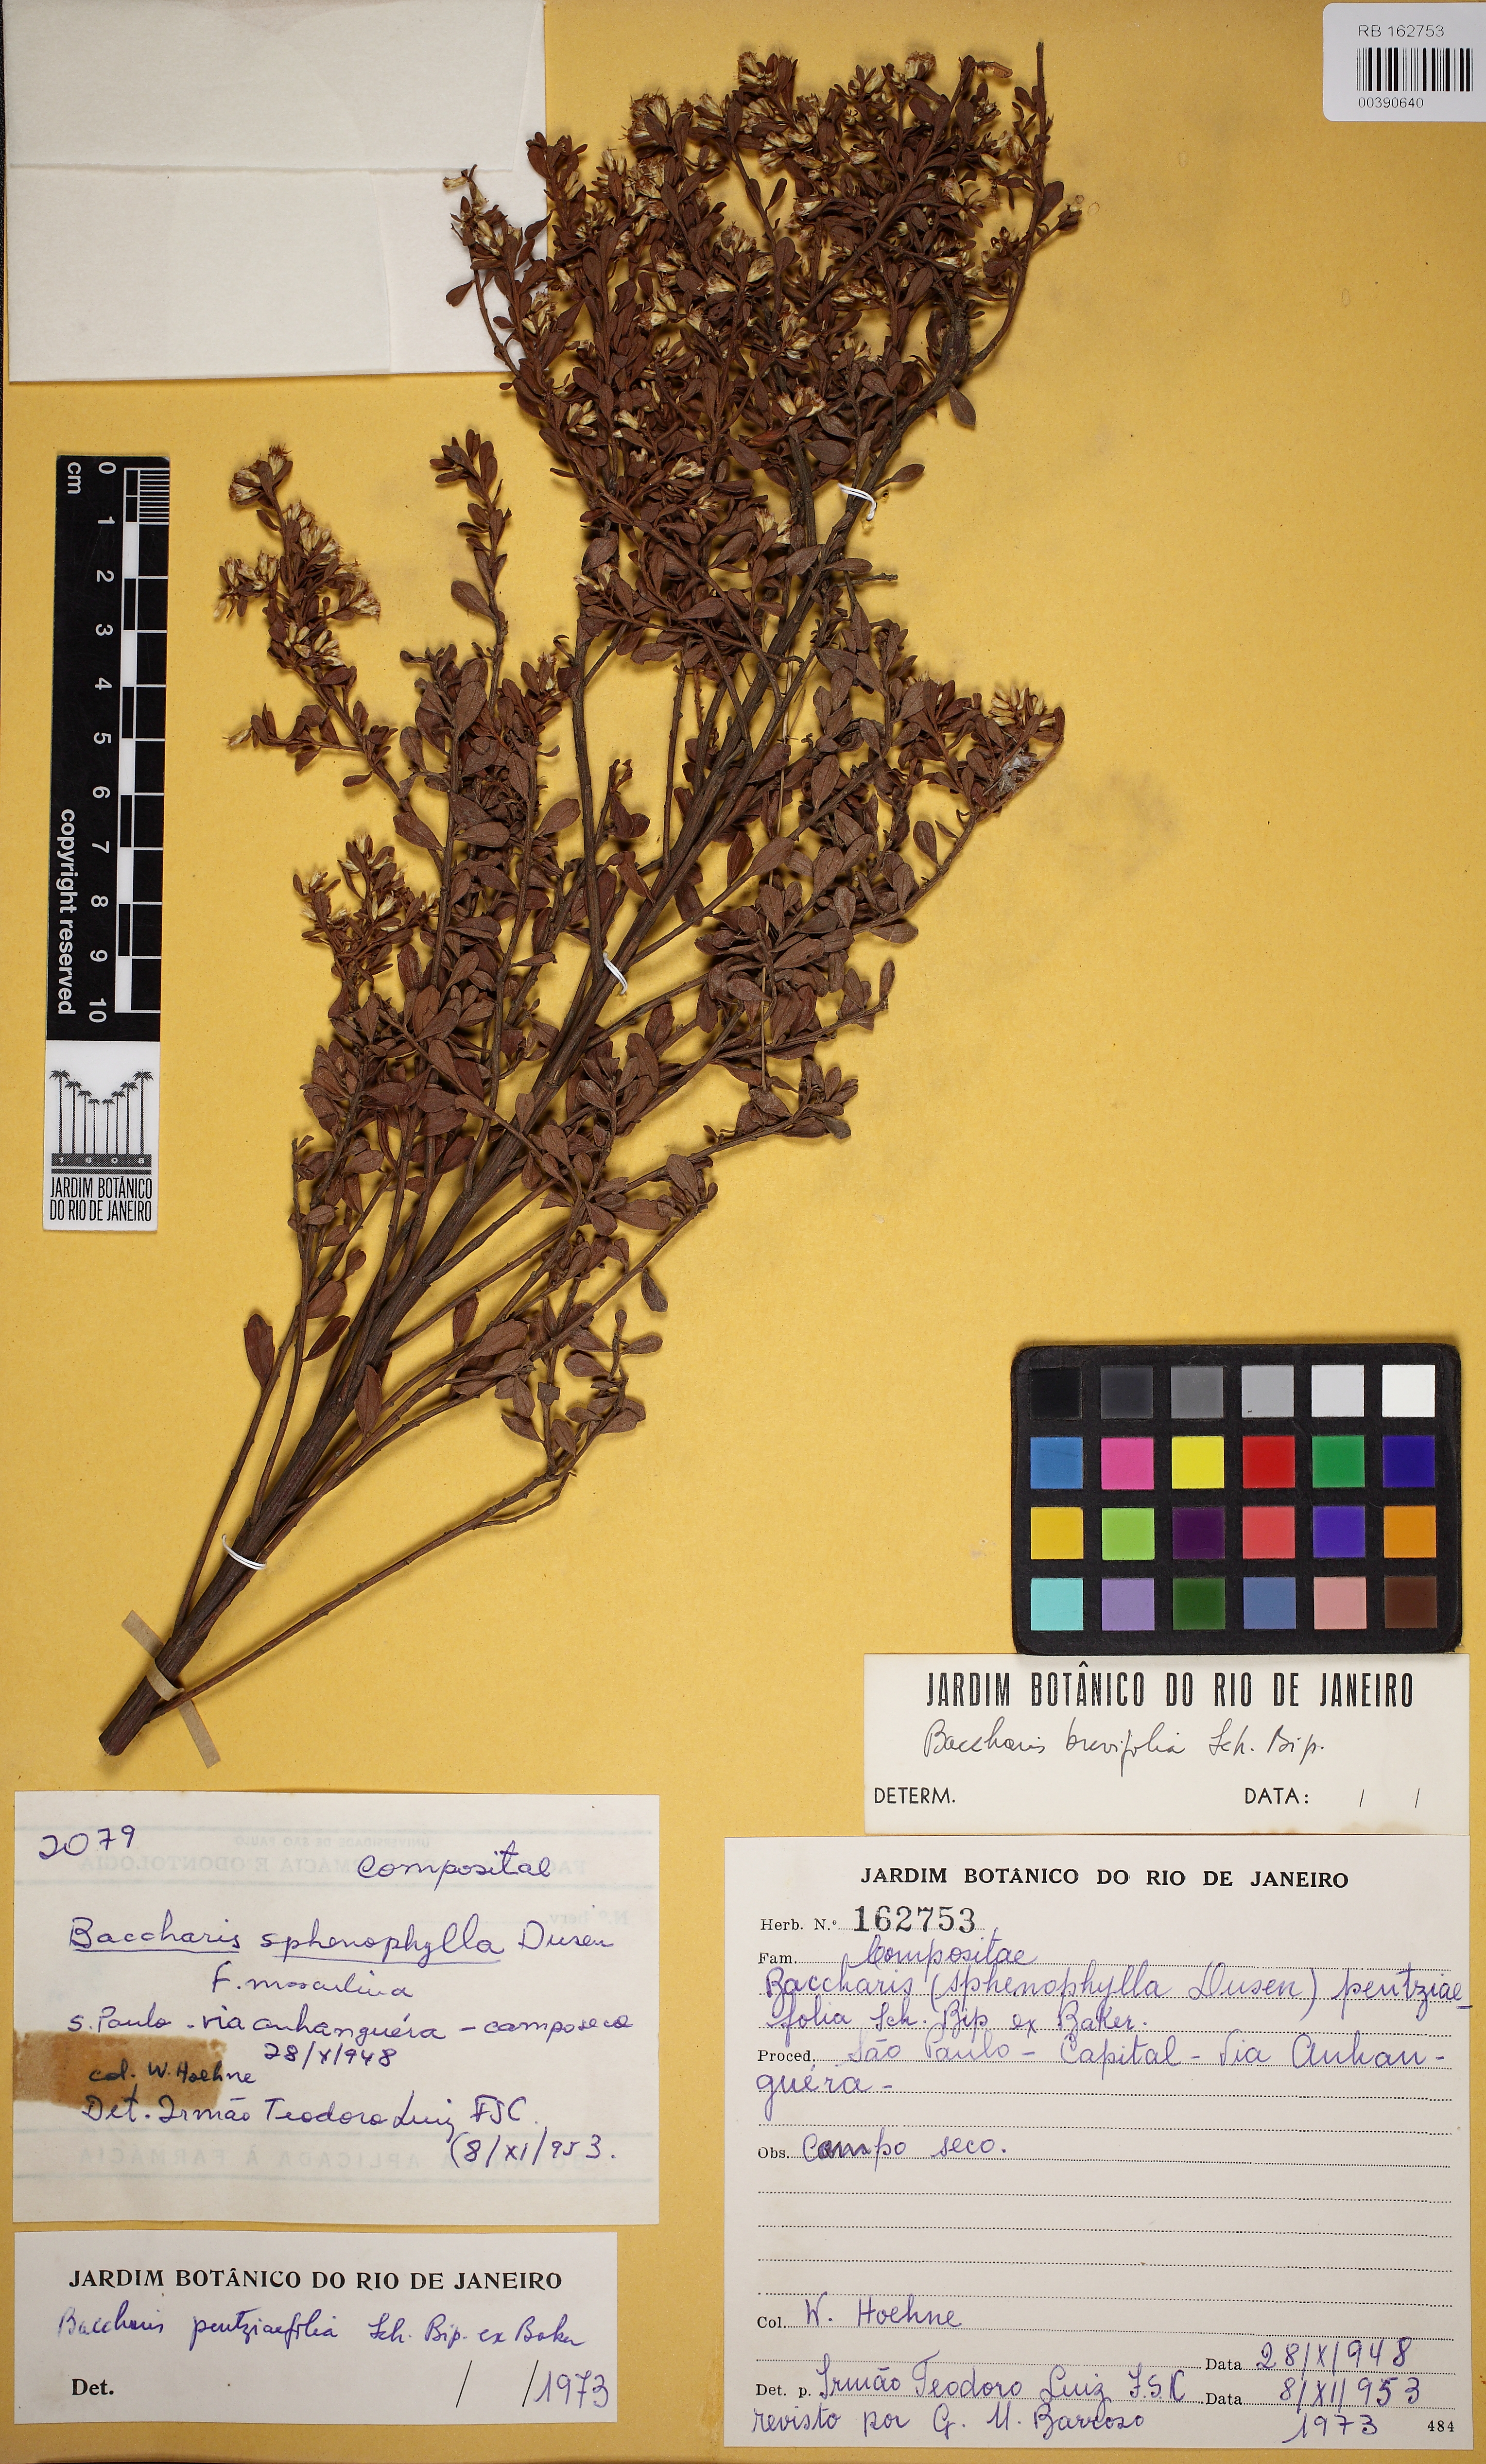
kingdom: Plantae
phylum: Tracheophyta
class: Magnoliopsida
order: Asterales
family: Asteraceae
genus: Baccharis
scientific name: Baccharis brevifolia
